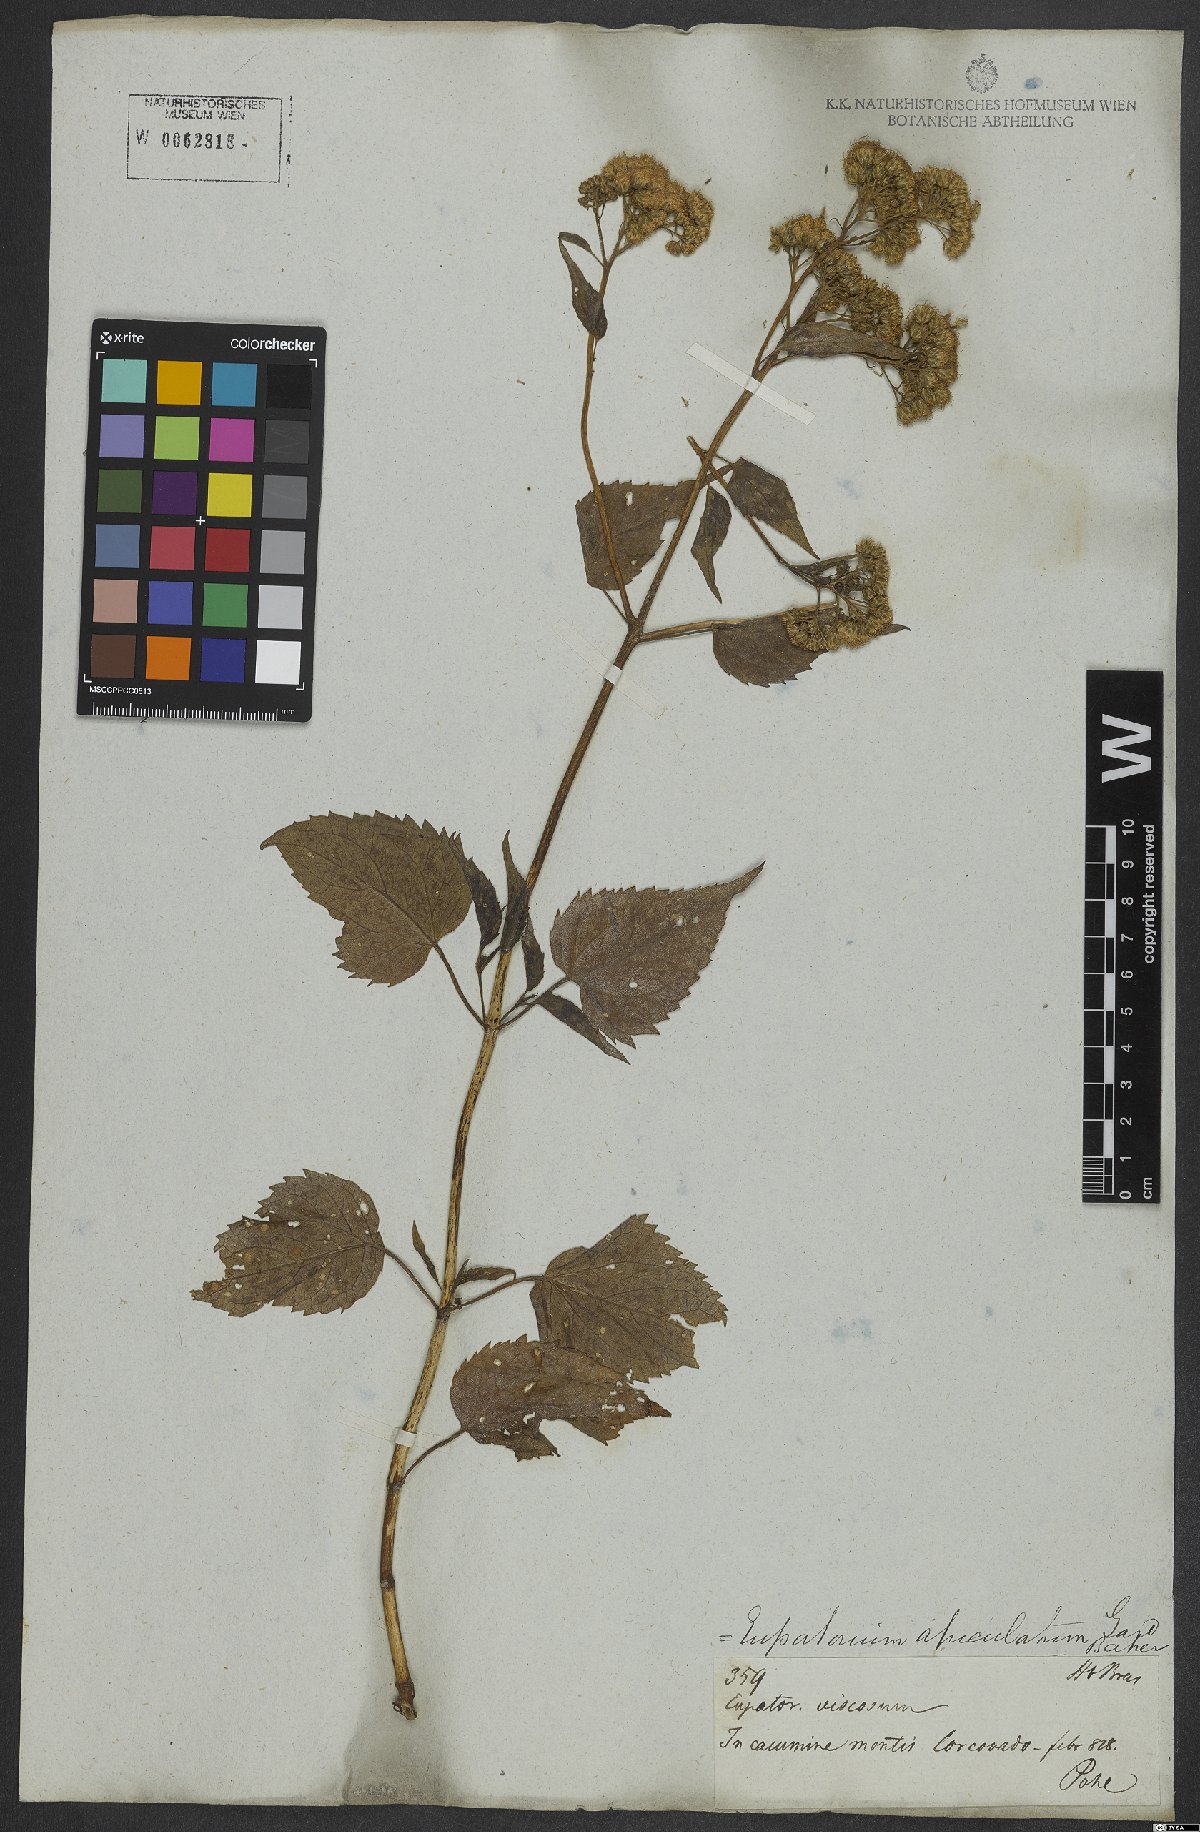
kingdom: Plantae
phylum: Tracheophyta
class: Magnoliopsida
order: Asterales
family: Asteraceae
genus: Barrosoa
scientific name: Barrosoa apiculata
